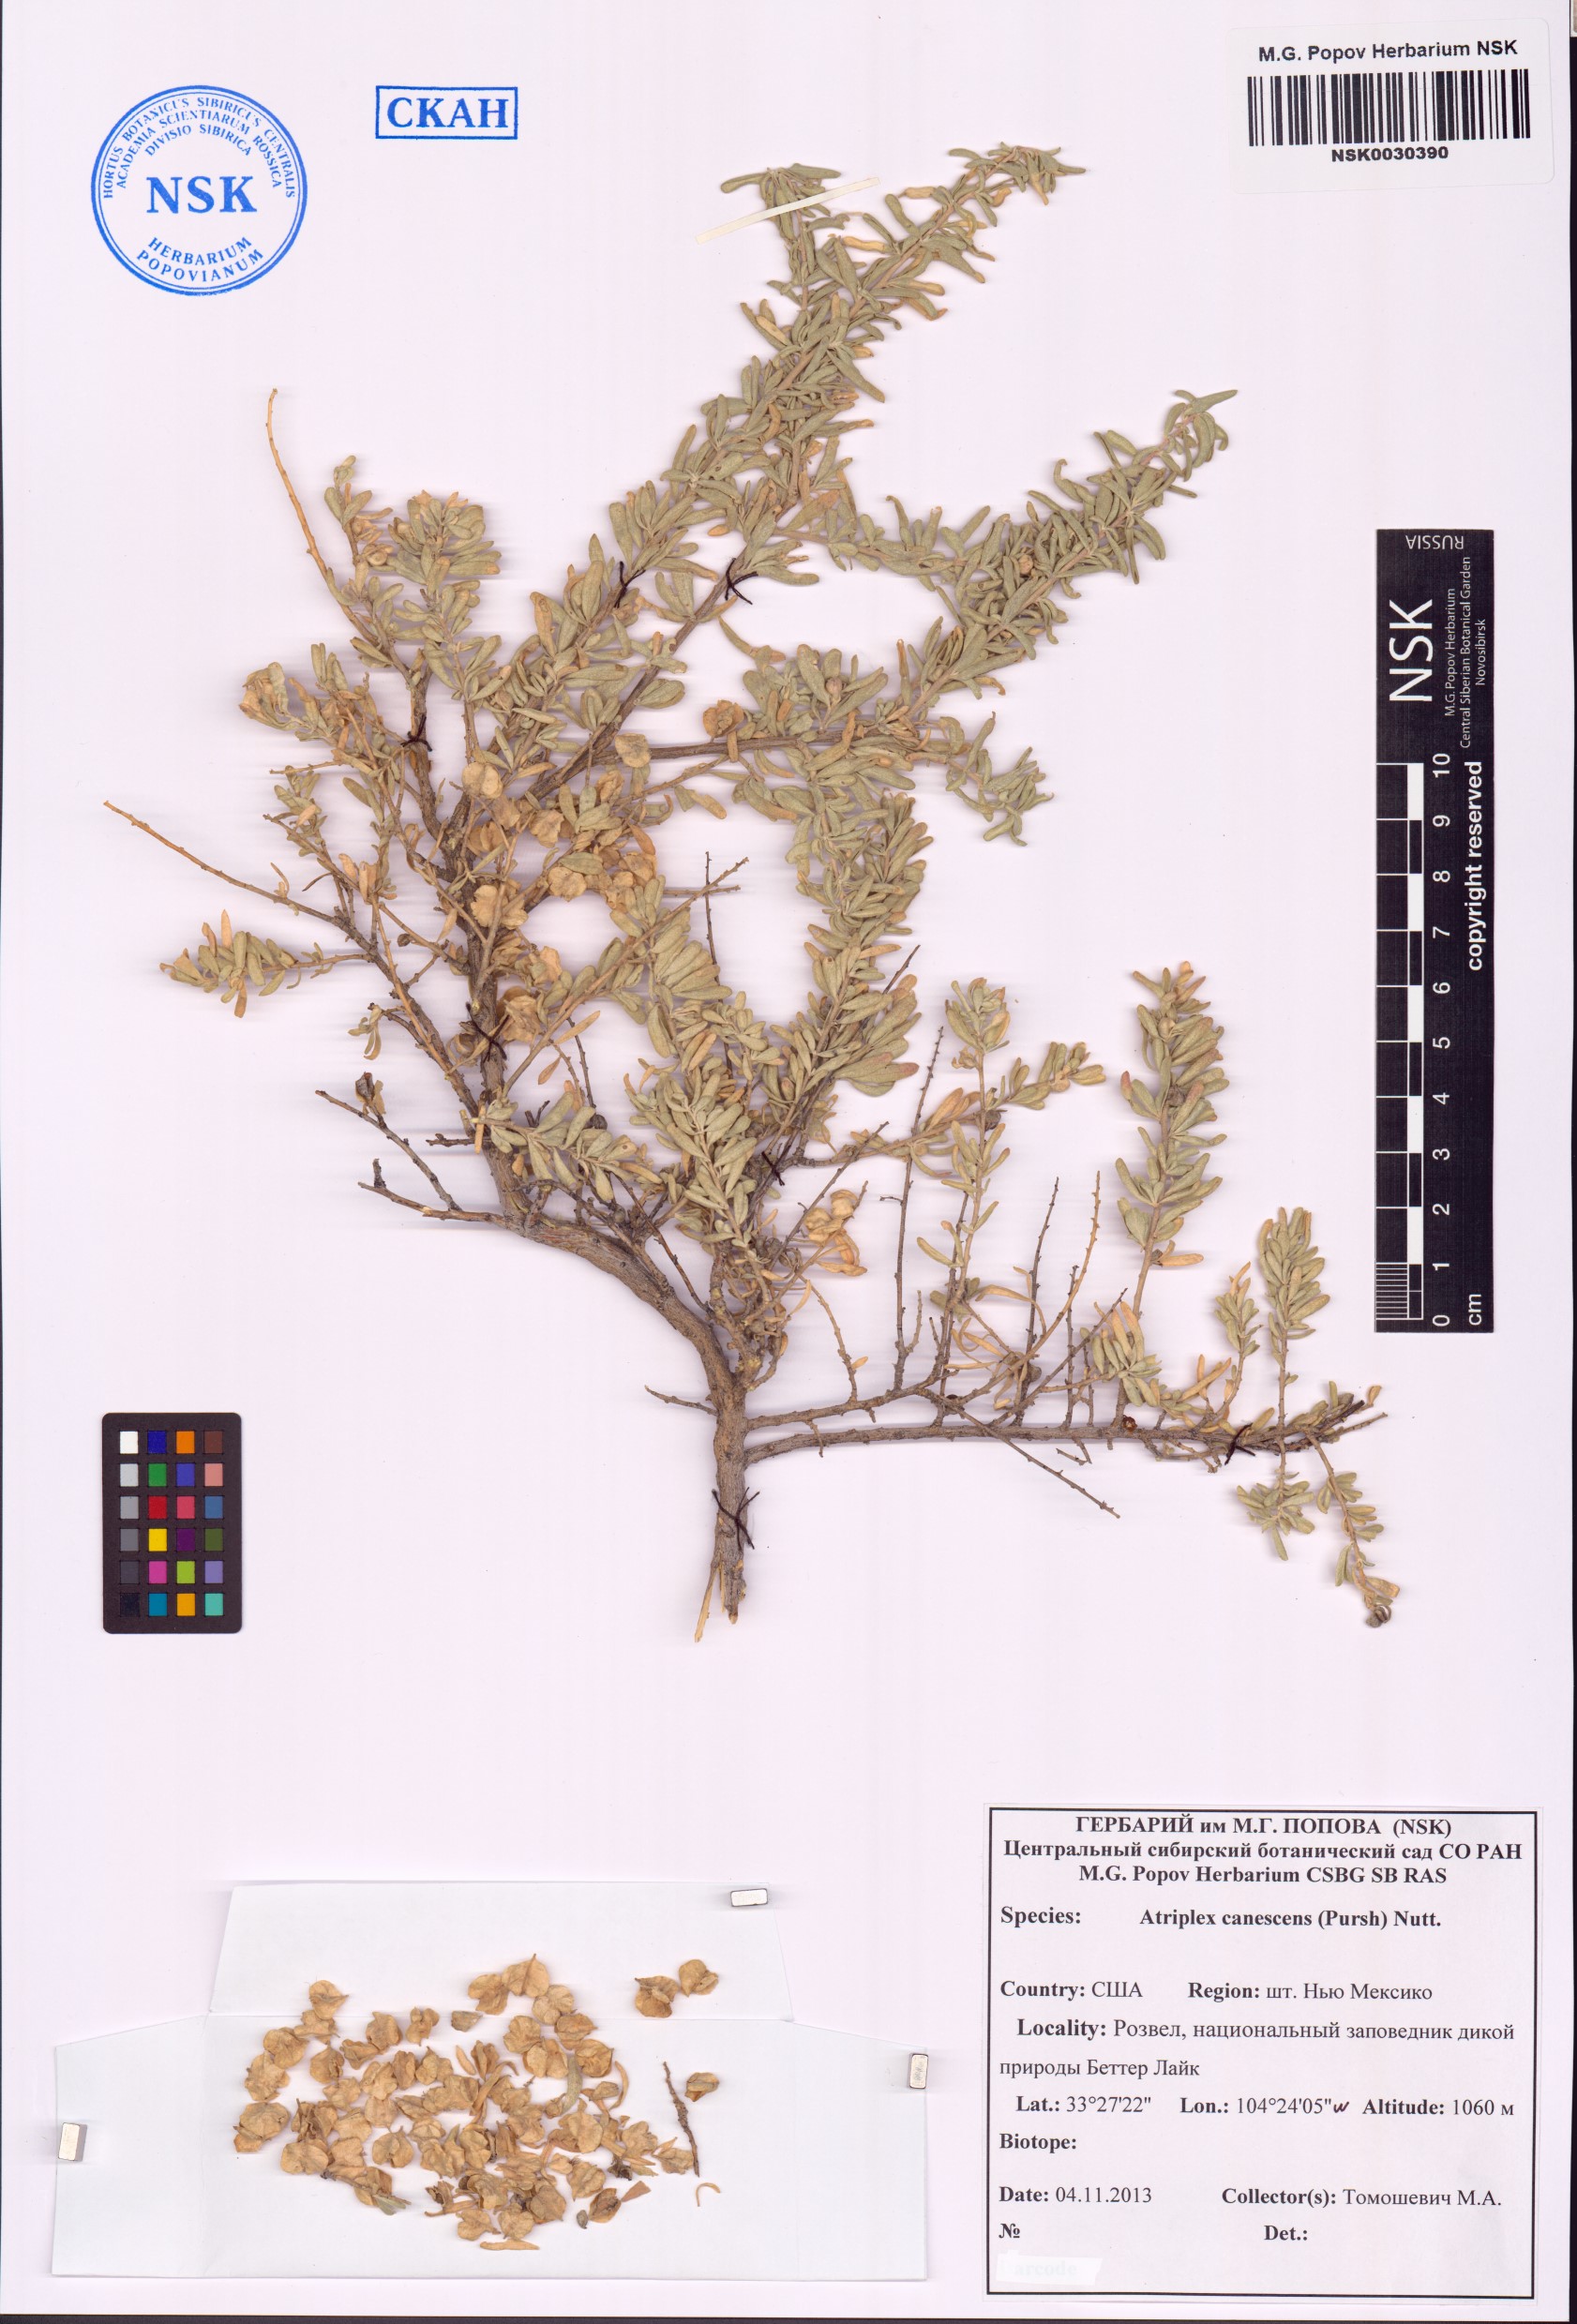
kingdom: Plantae
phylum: Tracheophyta
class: Magnoliopsida
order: Caryophyllales
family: Amaranthaceae
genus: Atriplex
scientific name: Atriplex canescens
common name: Four-wing saltbush
